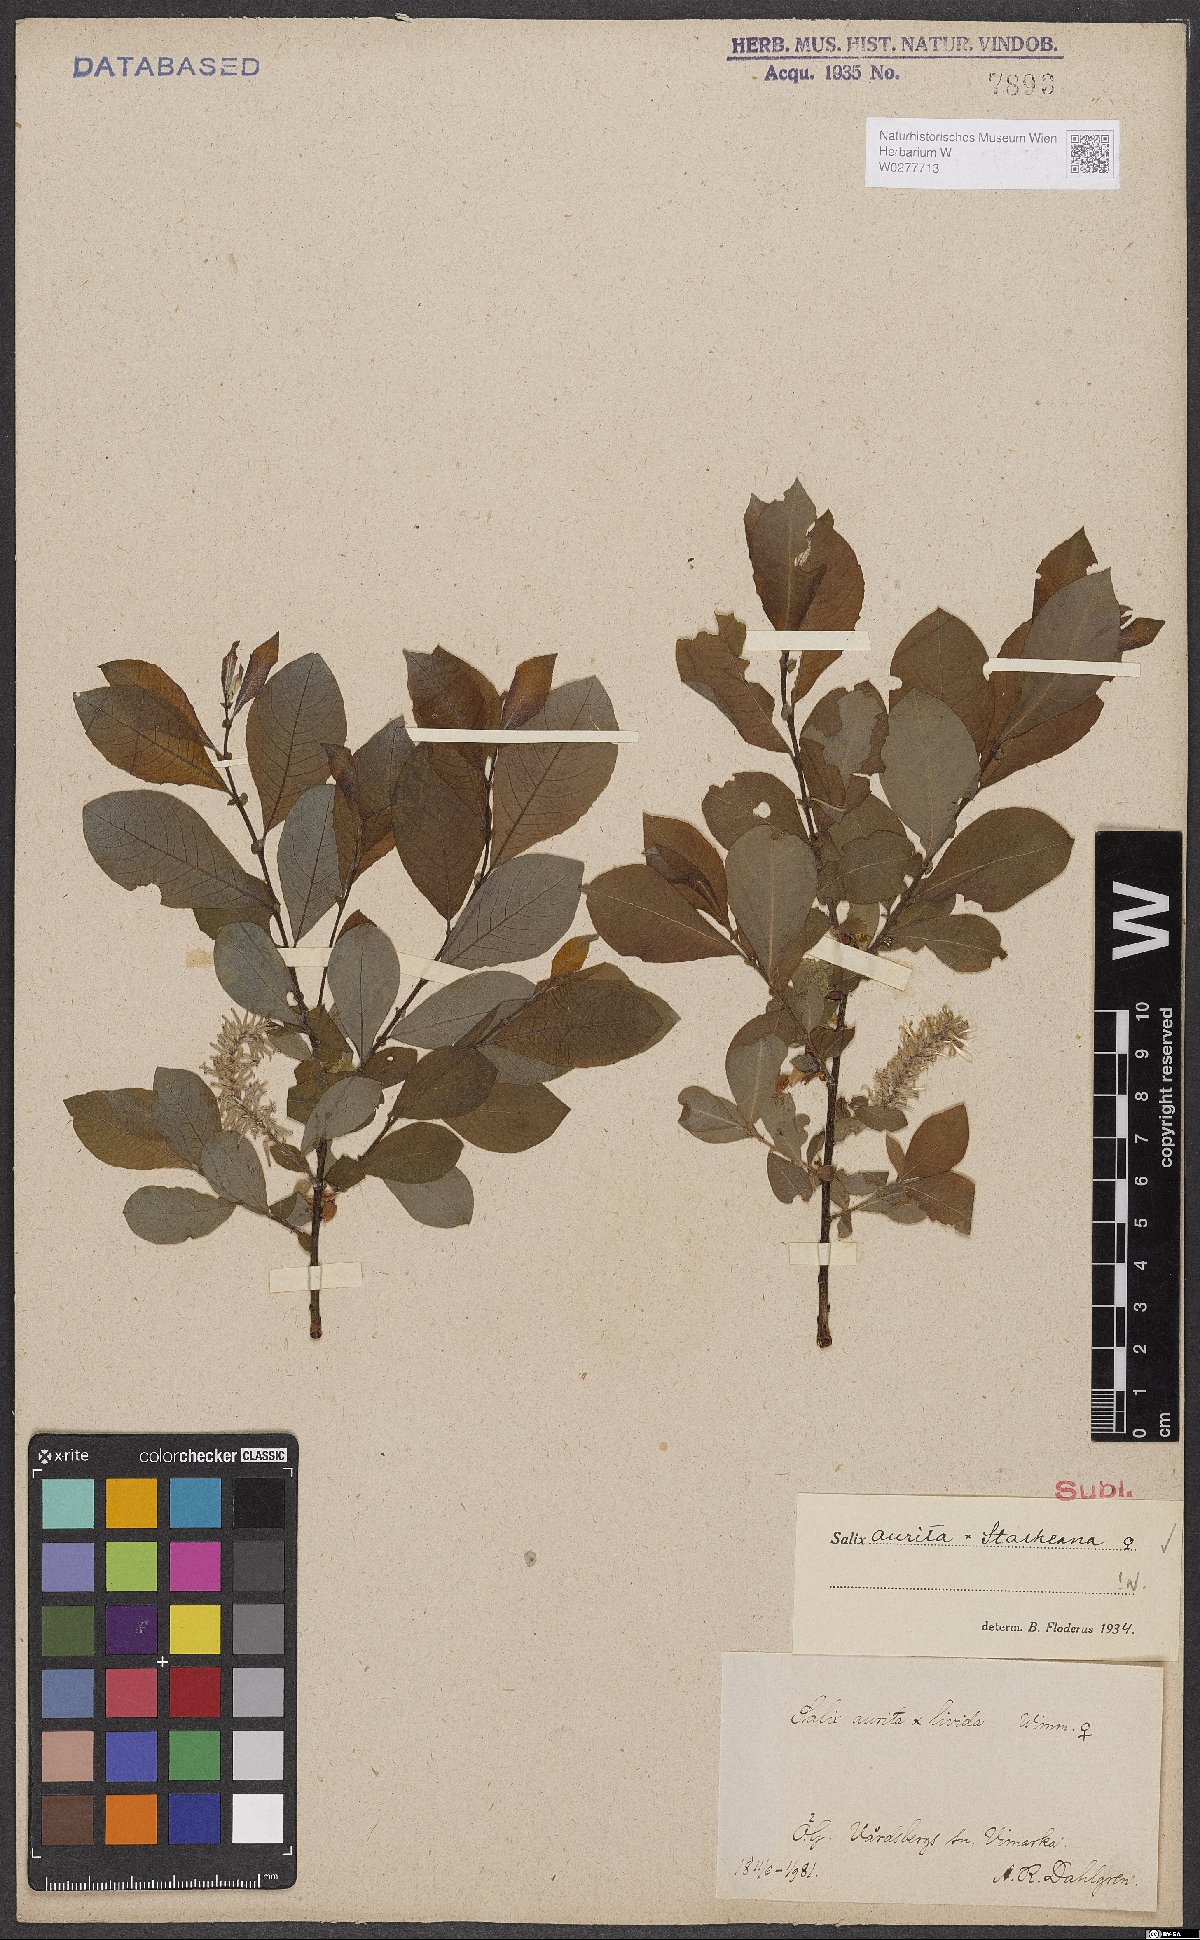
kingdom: Plantae
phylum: Tracheophyta
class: Magnoliopsida
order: Malpighiales
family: Salicaceae
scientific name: Salicaceae
